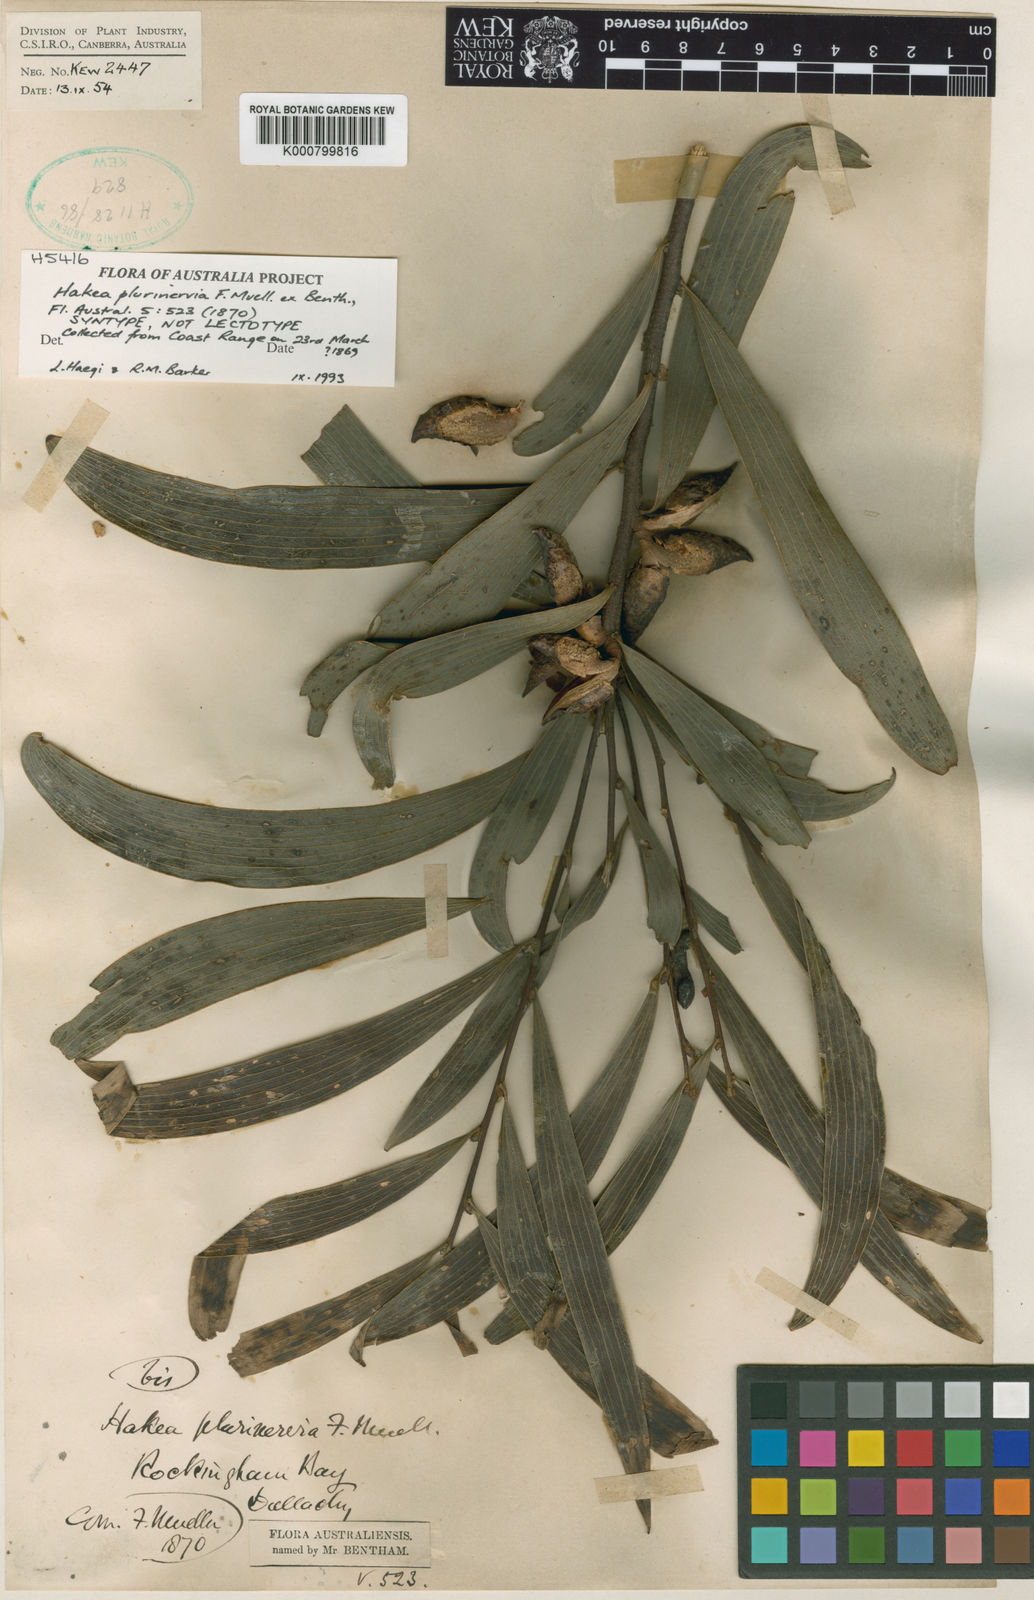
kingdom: Plantae
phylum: Tracheophyta
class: Magnoliopsida
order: Proteales
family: Proteaceae
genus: Hakea
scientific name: Hakea benthamii
